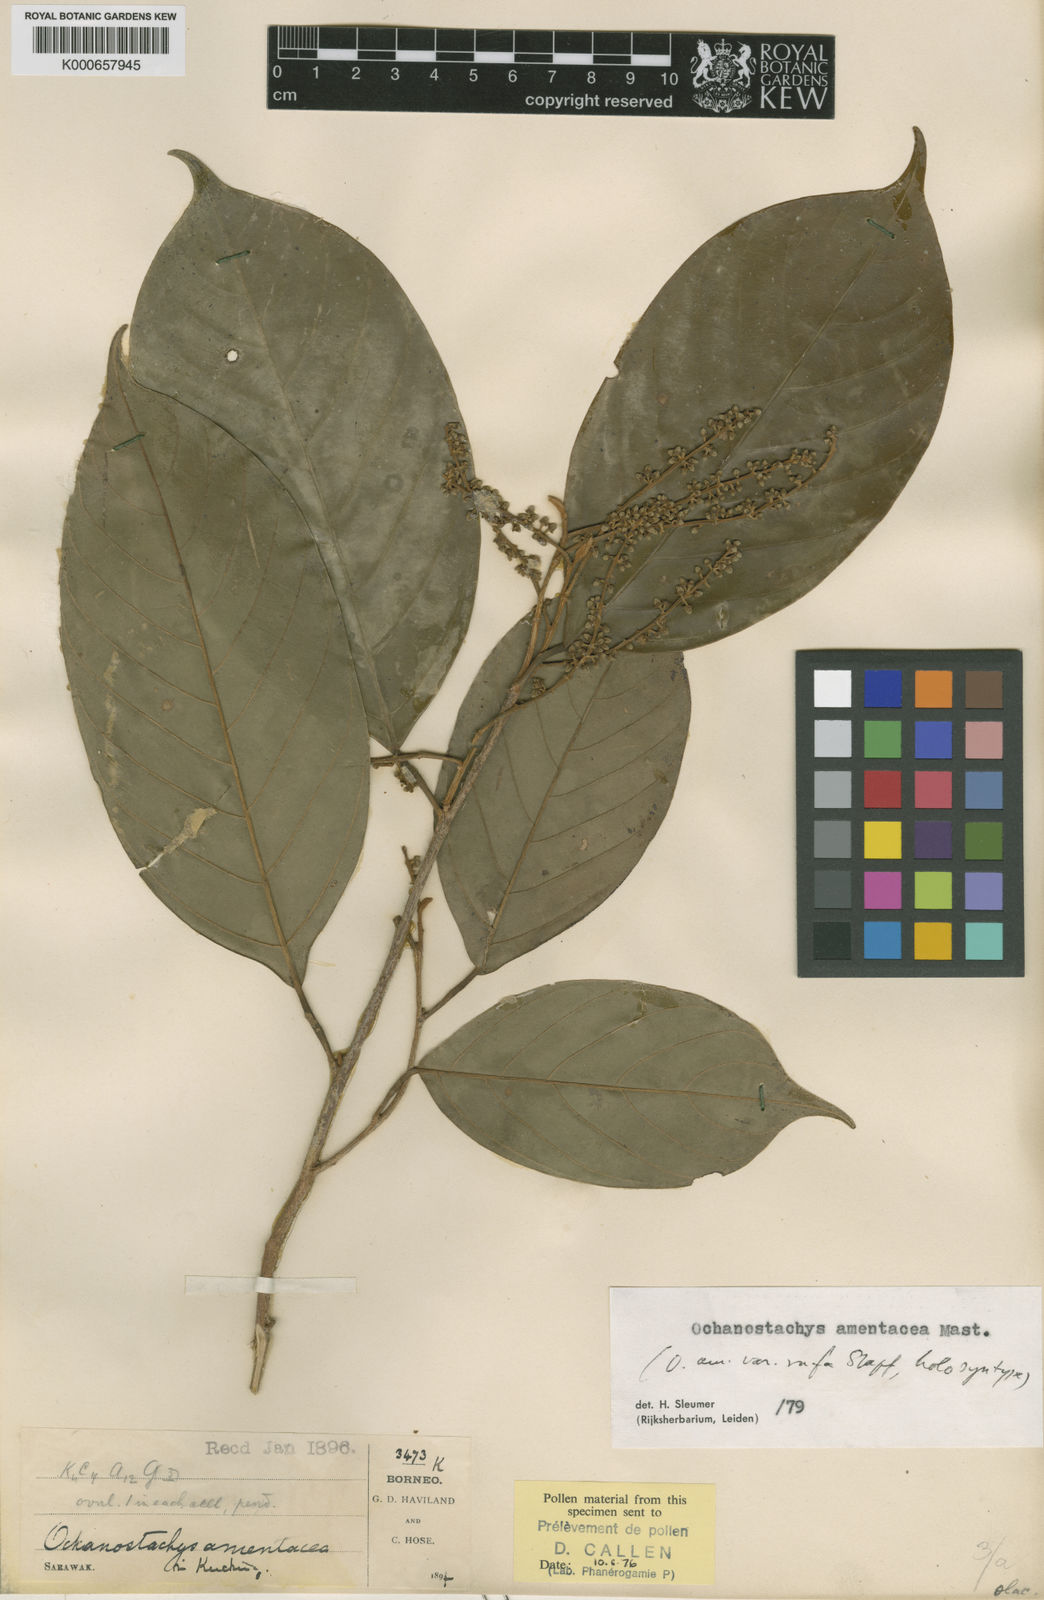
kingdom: Plantae
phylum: Tracheophyta
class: Magnoliopsida
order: Santalales
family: Coulaceae
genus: Ochanostachys
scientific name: Ochanostachys amentacea
